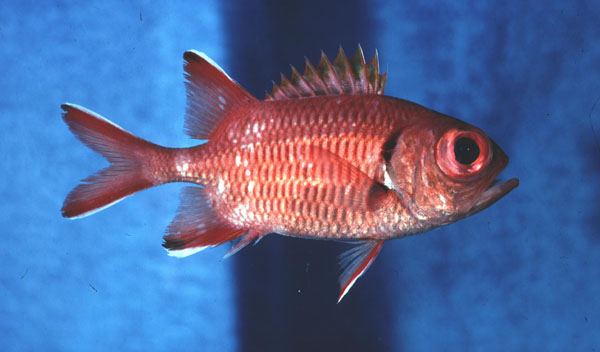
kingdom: Animalia
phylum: Chordata
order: Beryciformes
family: Holocentridae
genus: Myripristis
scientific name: Myripristis violacea
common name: Lattice soldierfish
